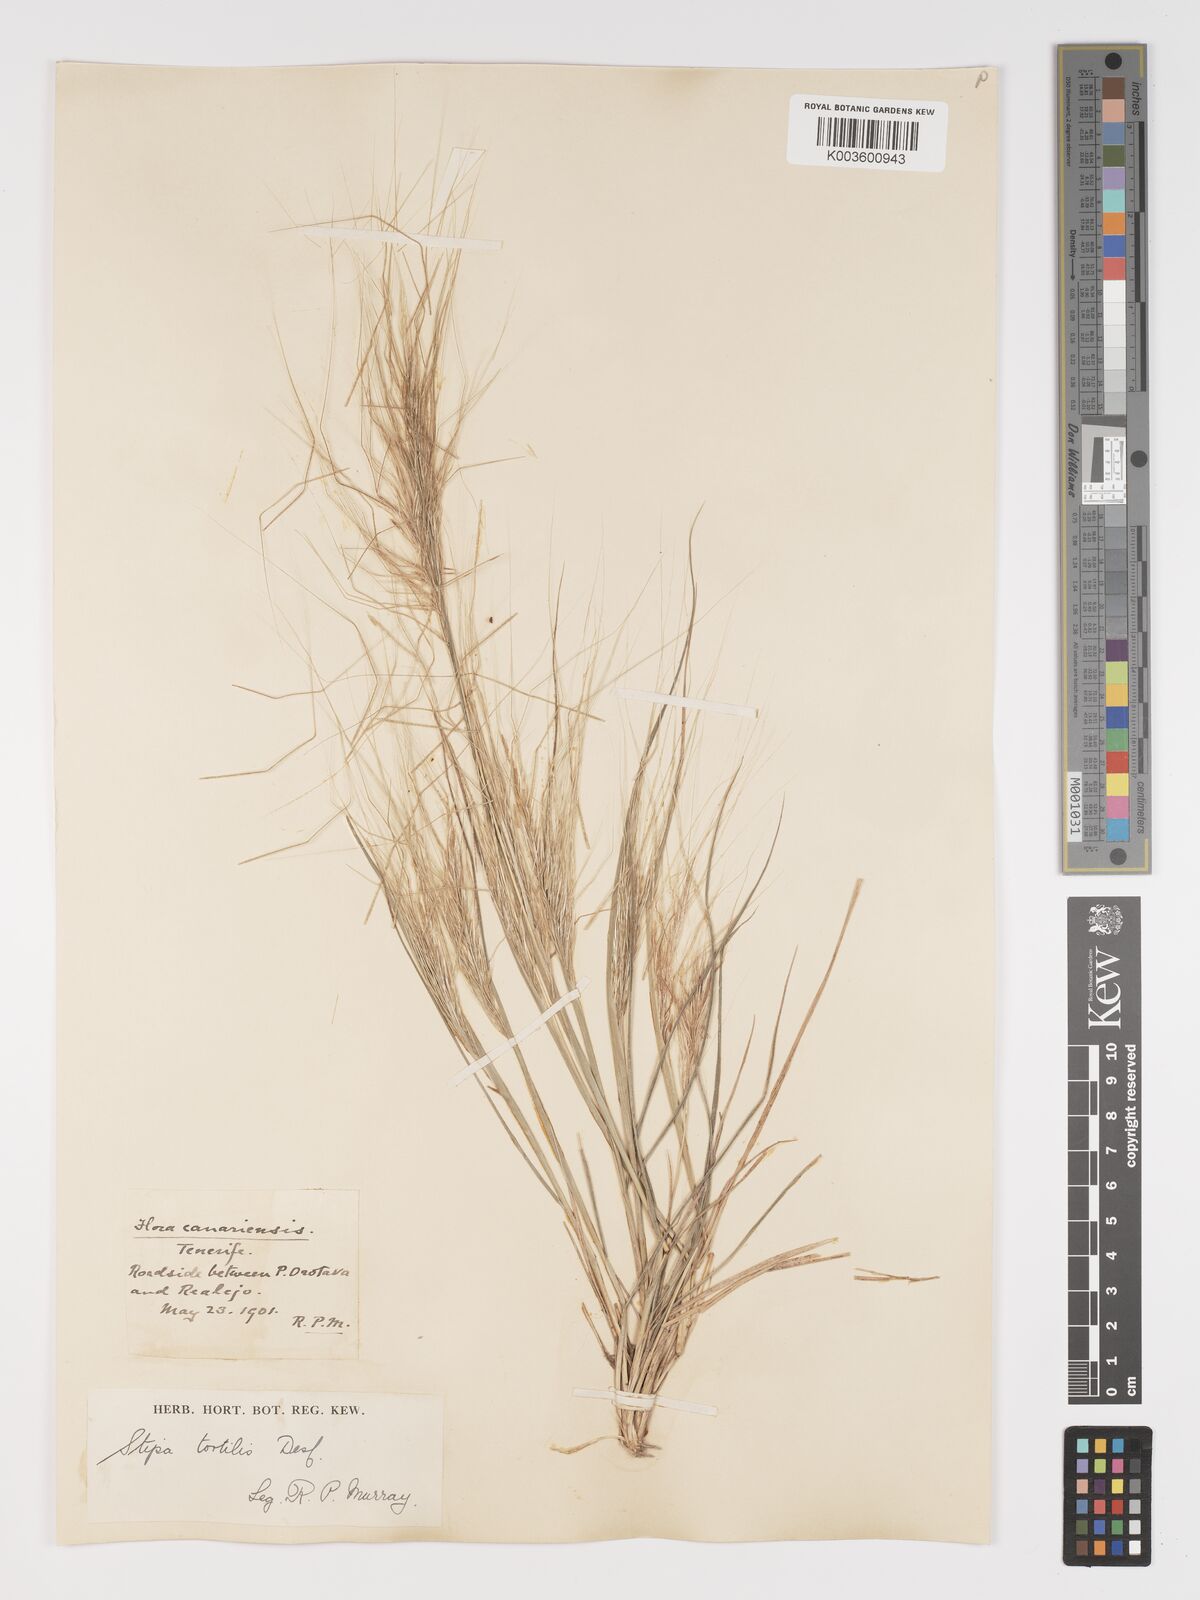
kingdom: Plantae
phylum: Tracheophyta
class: Liliopsida
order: Poales
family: Poaceae
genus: Stipa
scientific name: Stipa dregeana
